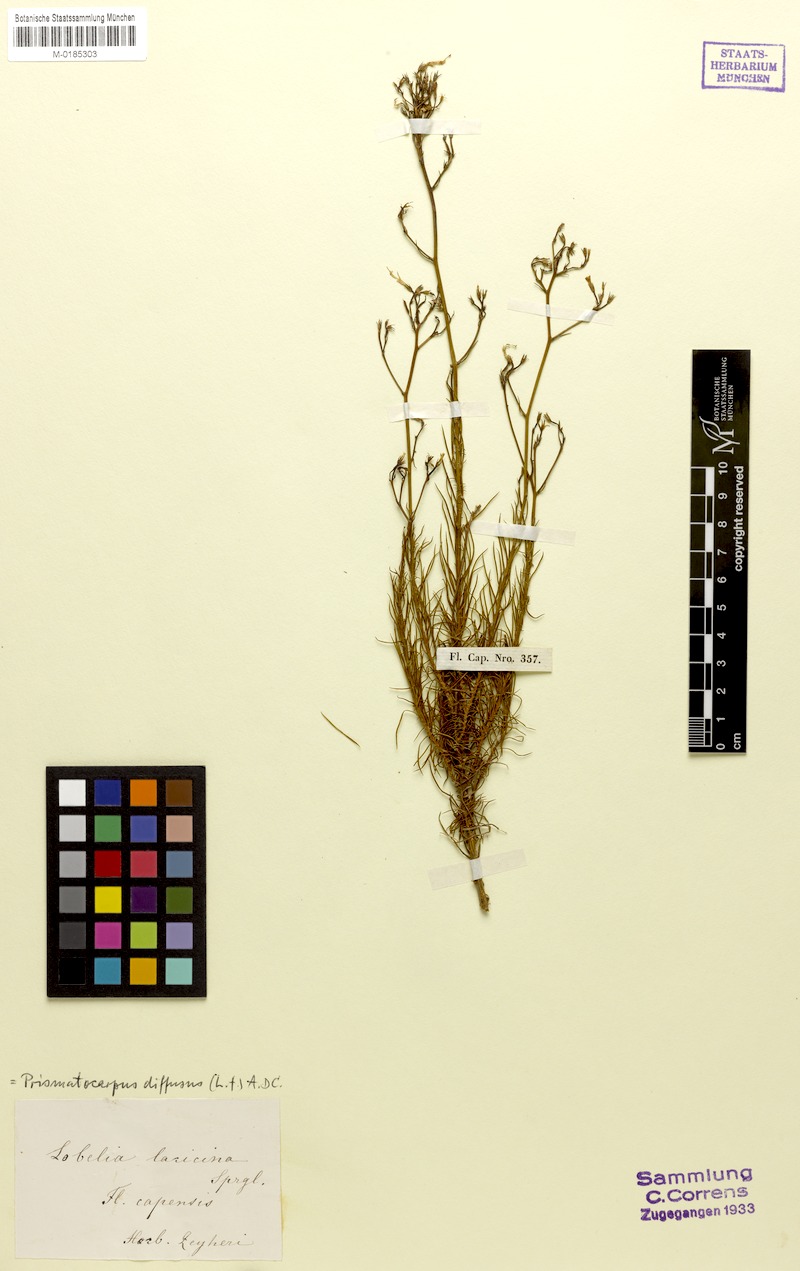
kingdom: Plantae
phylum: Tracheophyta
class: Magnoliopsida
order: Asterales
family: Campanulaceae
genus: Prismatocarpus
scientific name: Prismatocarpus diffusus
